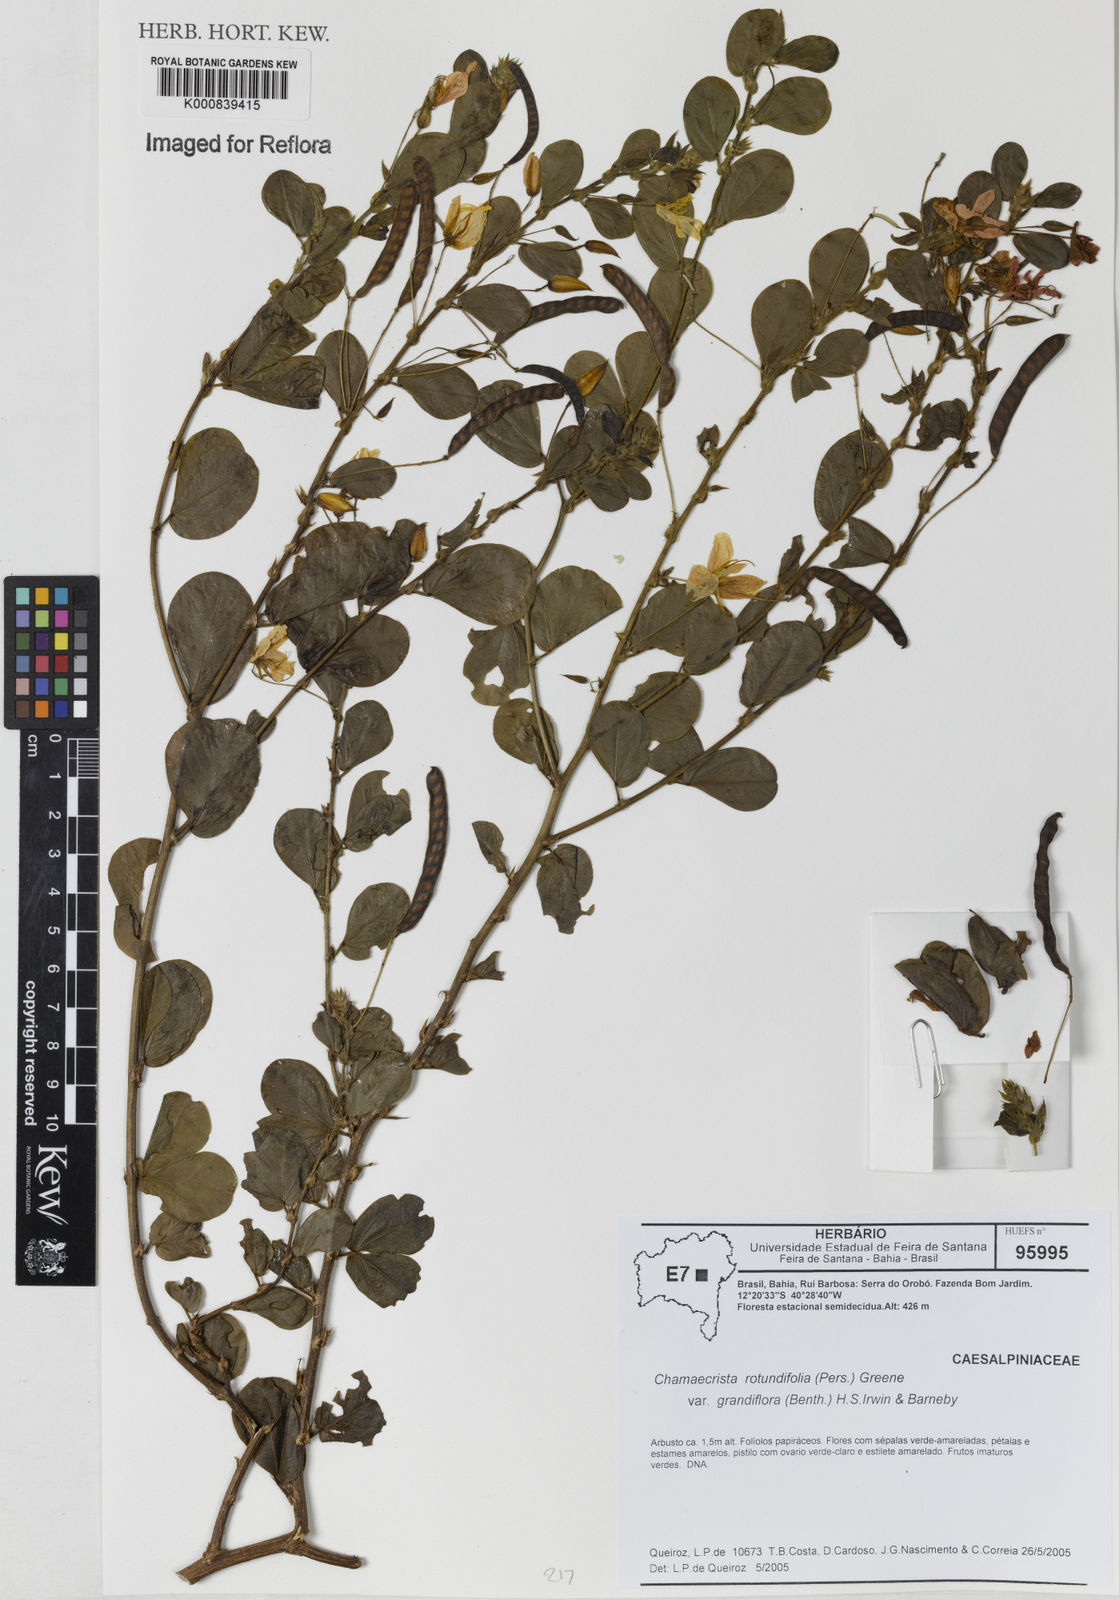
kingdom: Plantae
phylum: Tracheophyta
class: Magnoliopsida
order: Fabales
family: Fabaceae
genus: Chamaecrista
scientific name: Chamaecrista rotundifolia
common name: Round-leaf cassia
